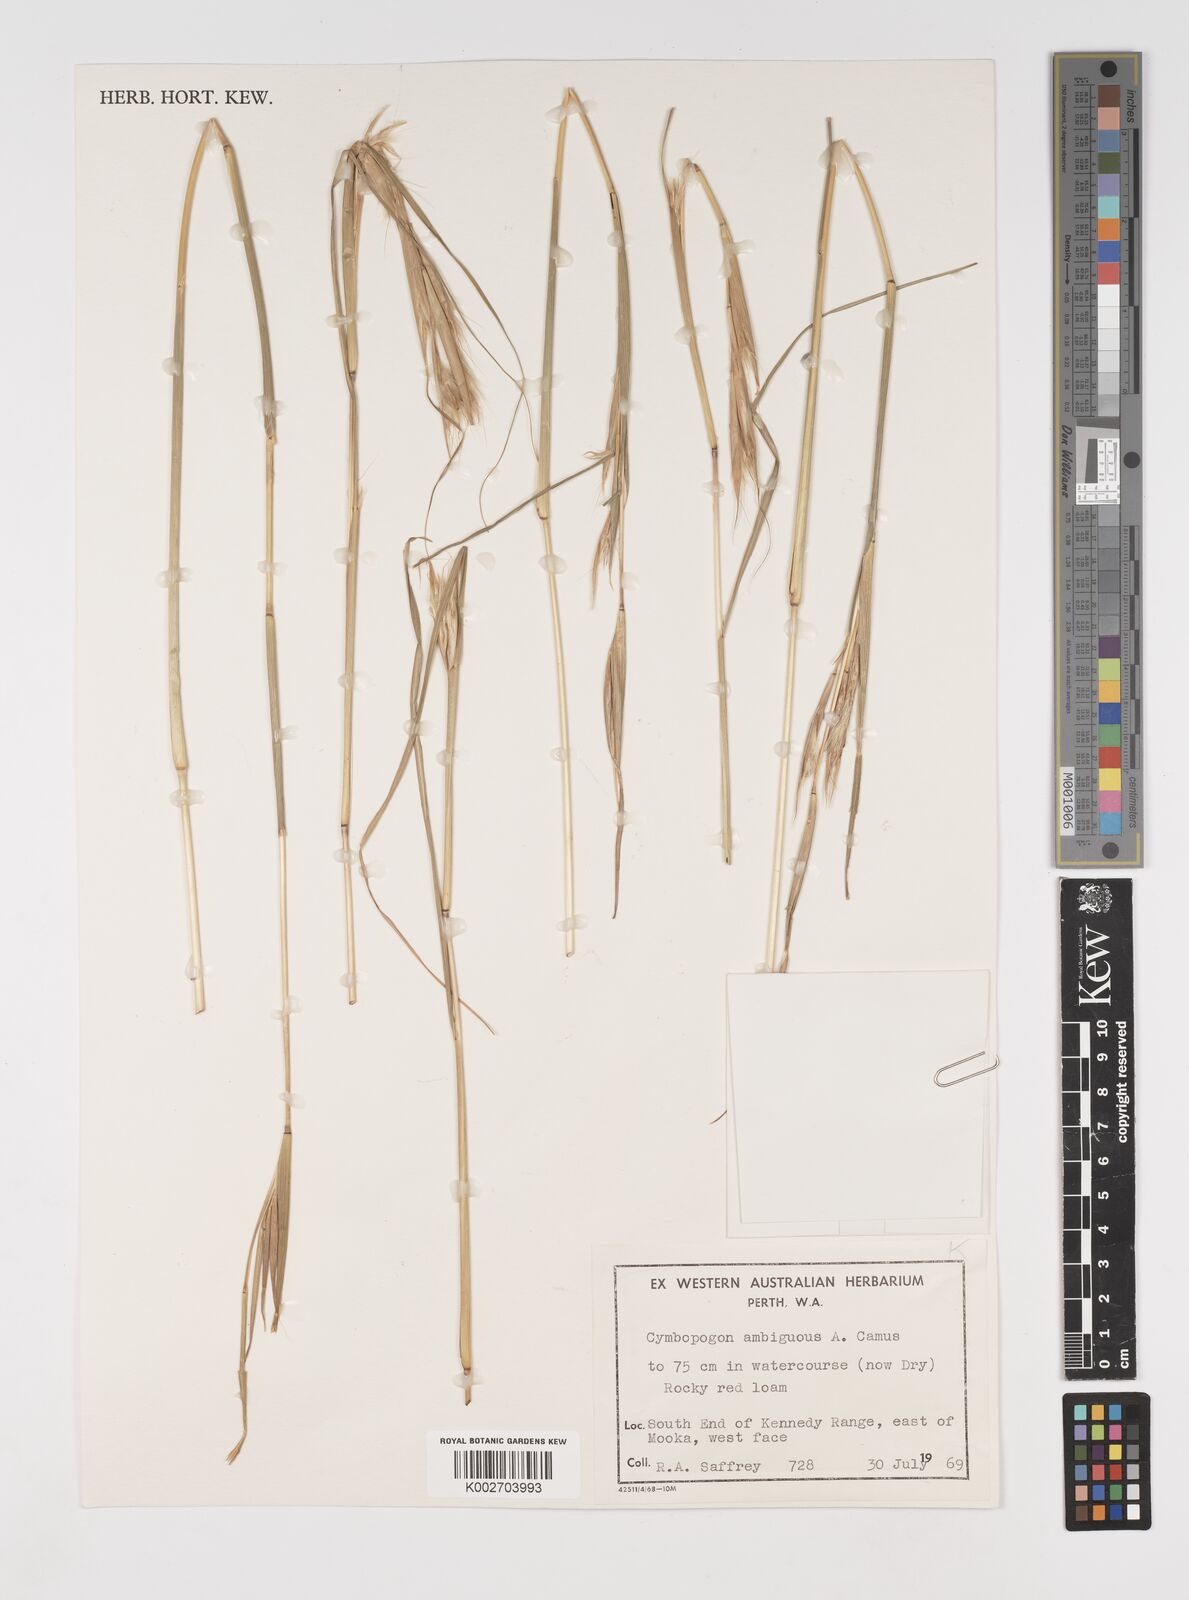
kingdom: Plantae
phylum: Tracheophyta
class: Liliopsida
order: Poales
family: Poaceae
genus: Cymbopogon
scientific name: Cymbopogon ambiguus
